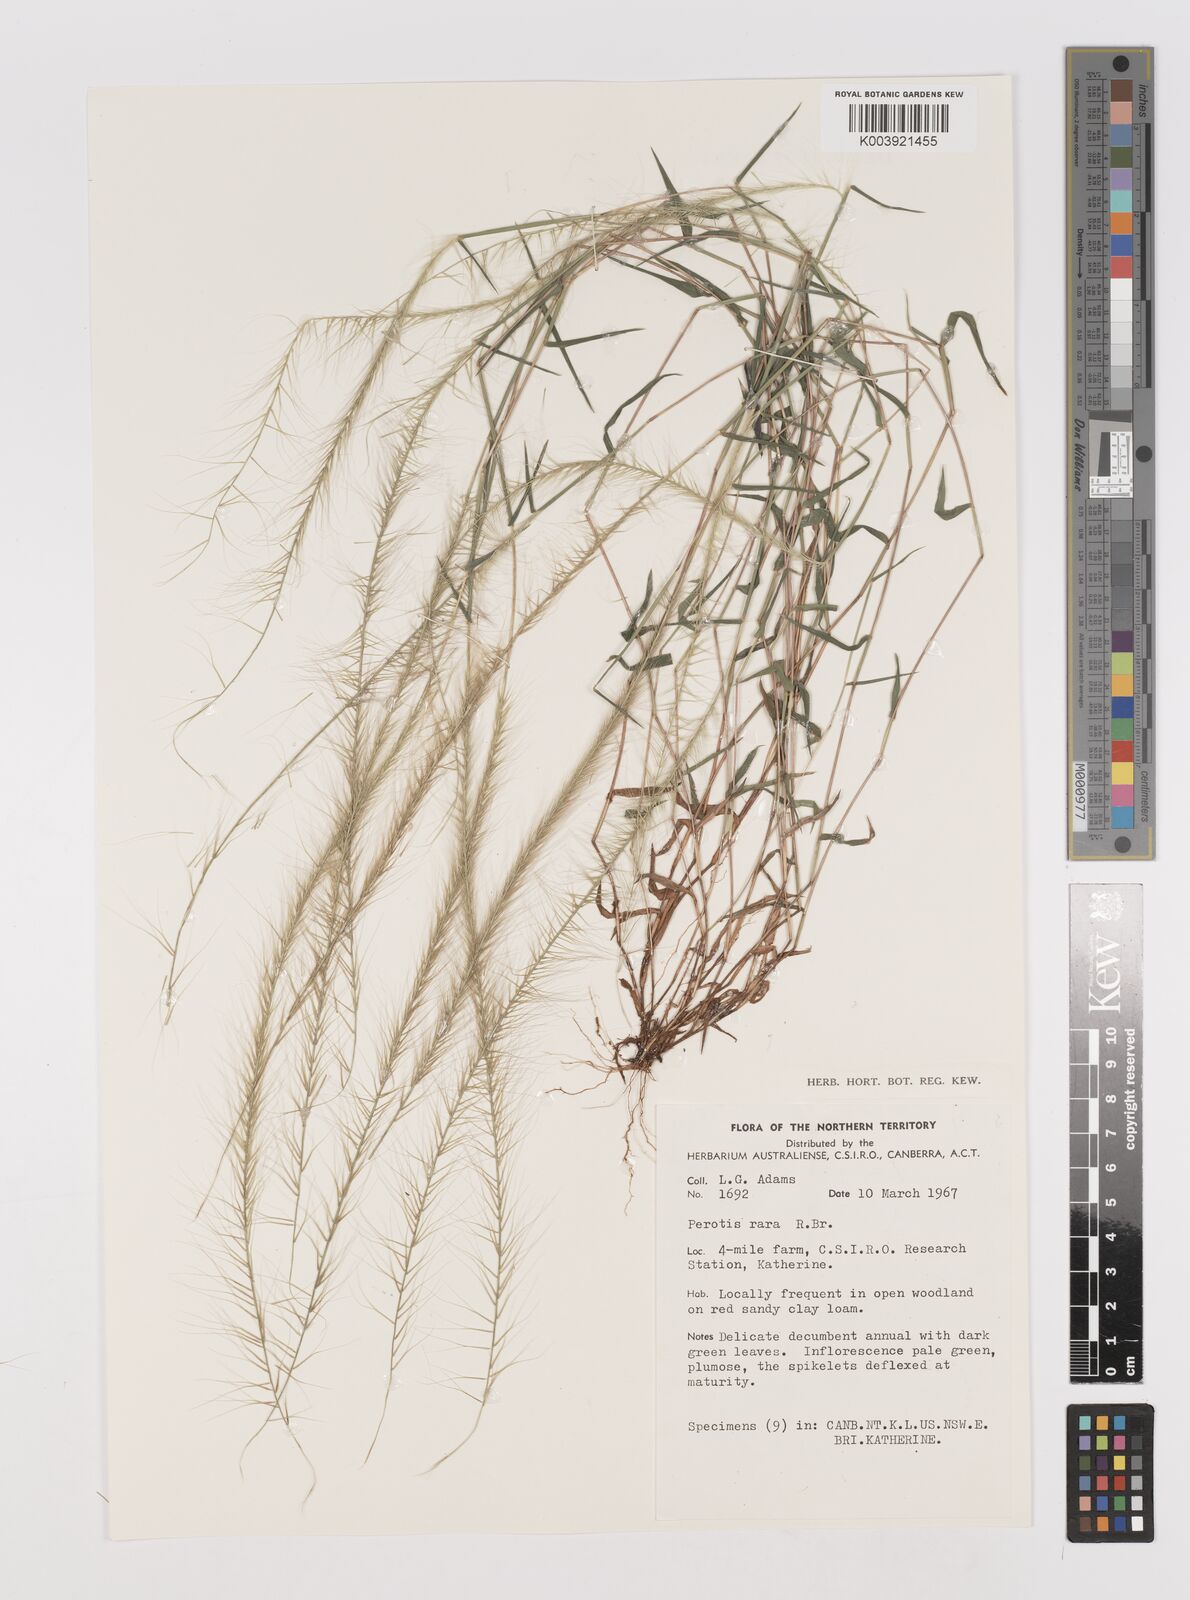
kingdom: Plantae
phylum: Tracheophyta
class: Liliopsida
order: Poales
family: Poaceae
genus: Perotis
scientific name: Perotis rara
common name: Comet grass
